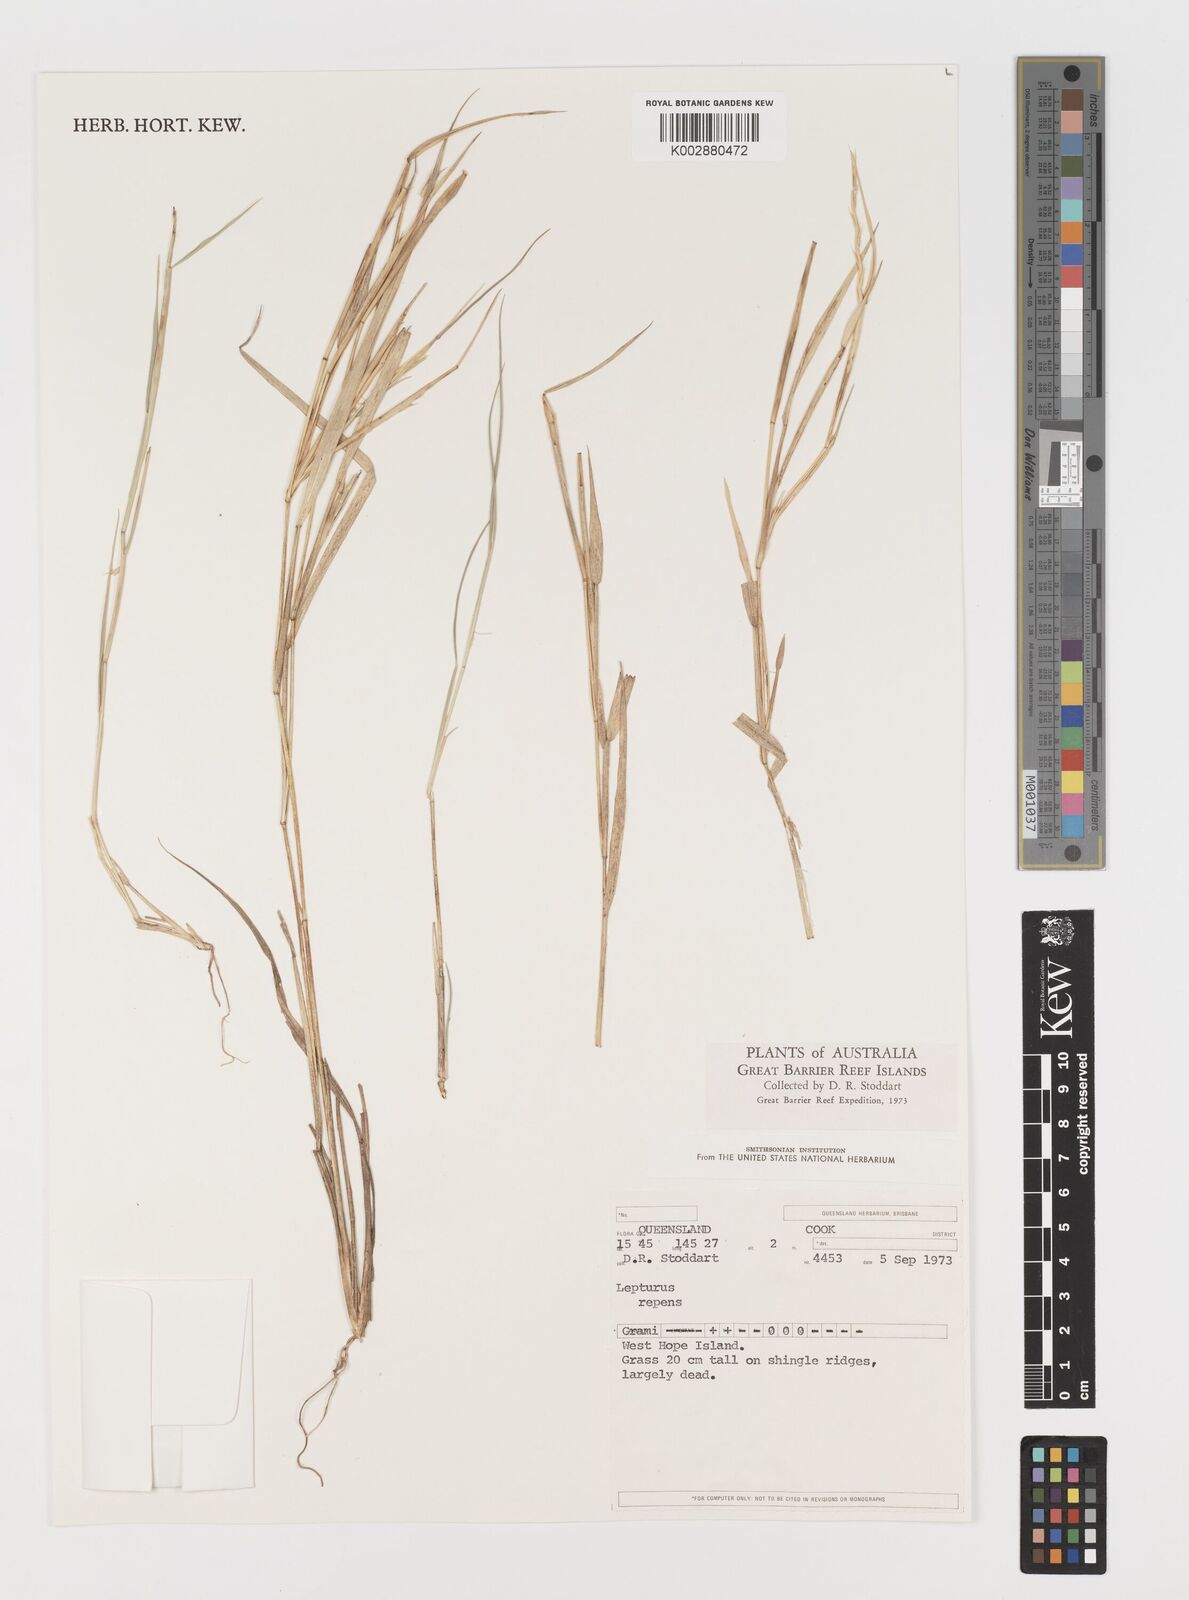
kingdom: Plantae
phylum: Tracheophyta
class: Liliopsida
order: Poales
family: Poaceae
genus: Lepturus
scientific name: Lepturus repens
